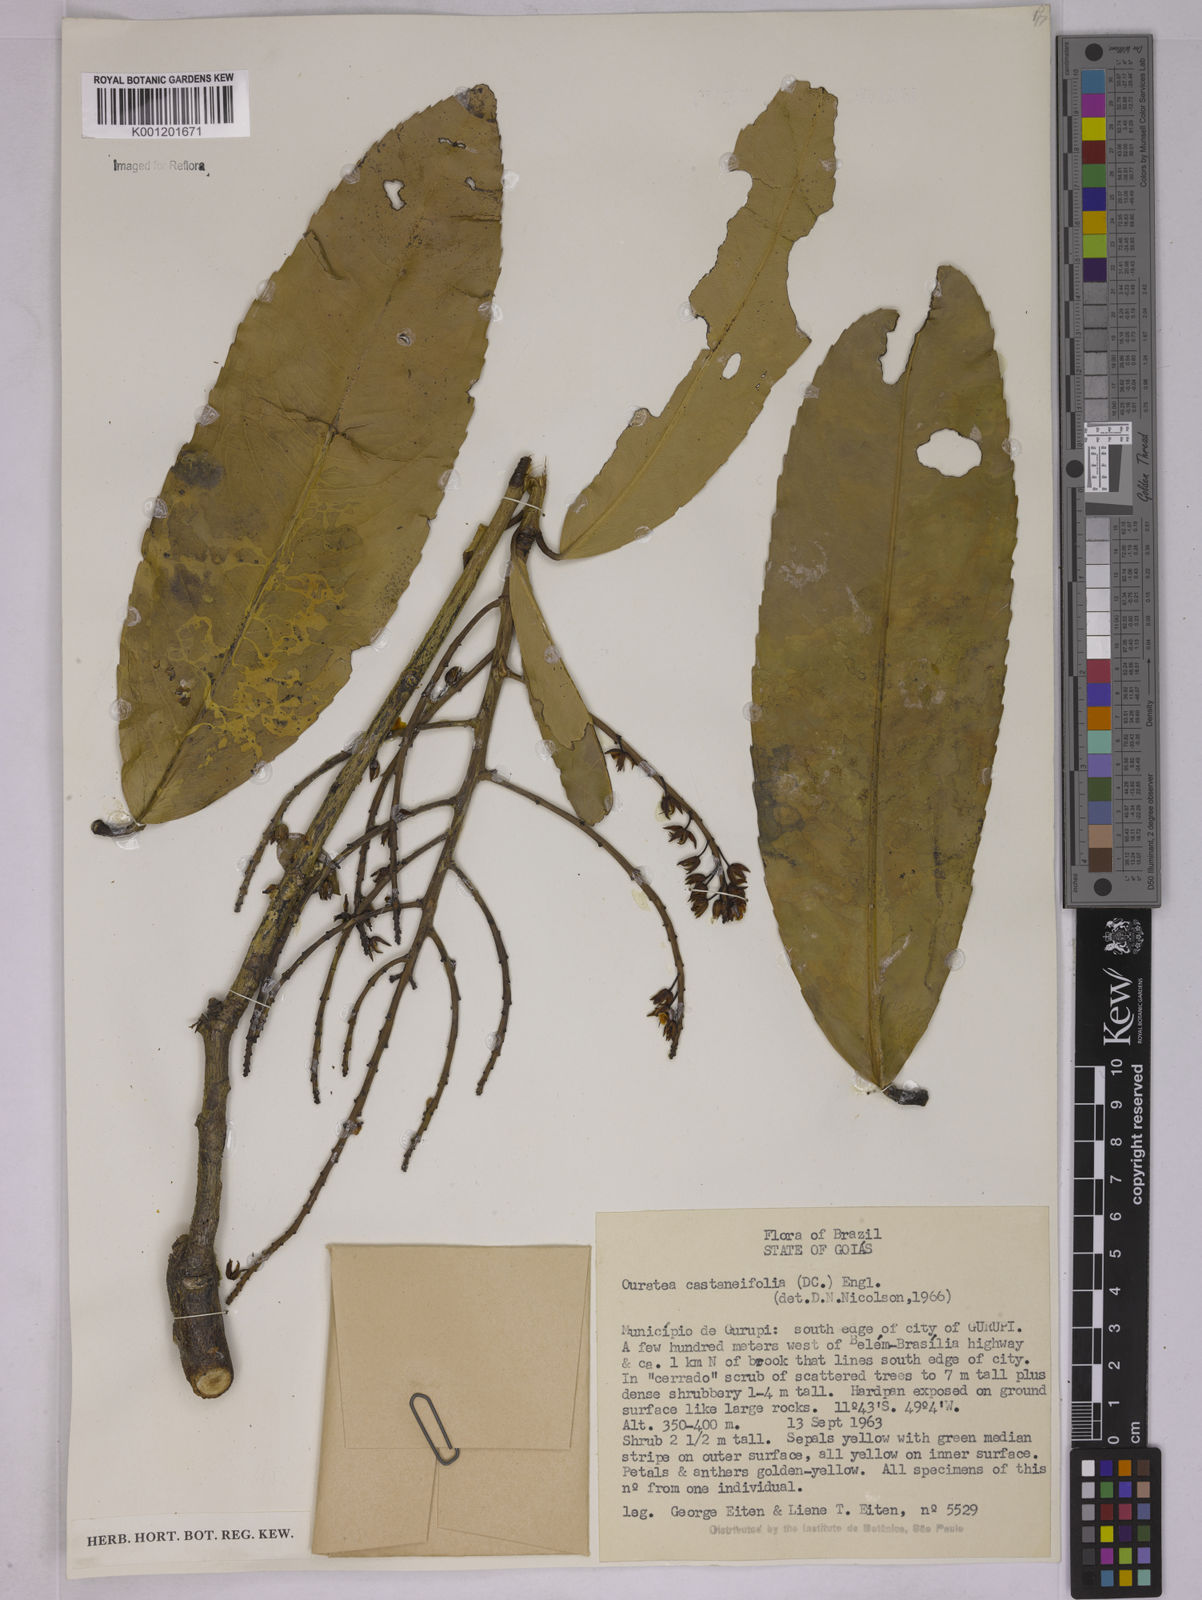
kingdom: Plantae
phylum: Tracheophyta
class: Magnoliopsida
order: Malpighiales
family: Ochnaceae
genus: Ouratea
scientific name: Ouratea castaneifolia
